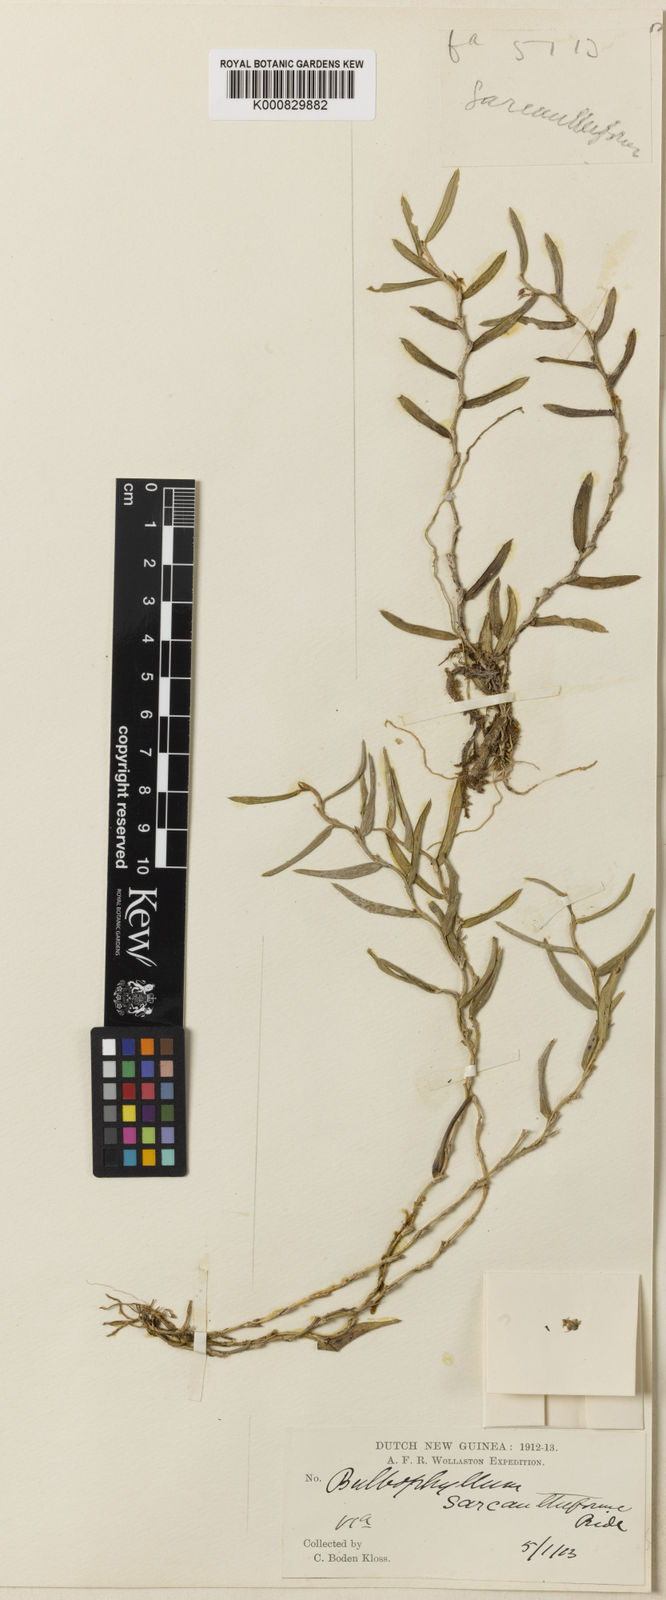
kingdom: Plantae
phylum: Tracheophyta
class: Liliopsida
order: Asparagales
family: Orchidaceae
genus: Bulbophyllum
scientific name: Bulbophyllum hystricinum
